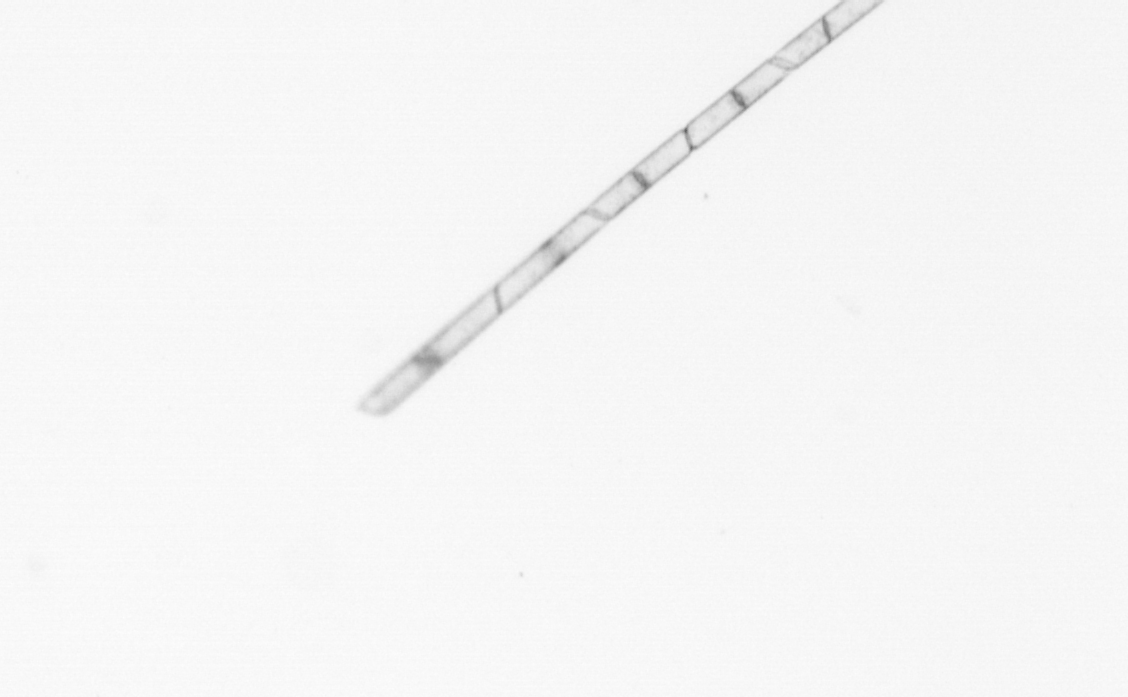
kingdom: Chromista
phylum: Ochrophyta
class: Bacillariophyceae
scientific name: Bacillariophyceae
